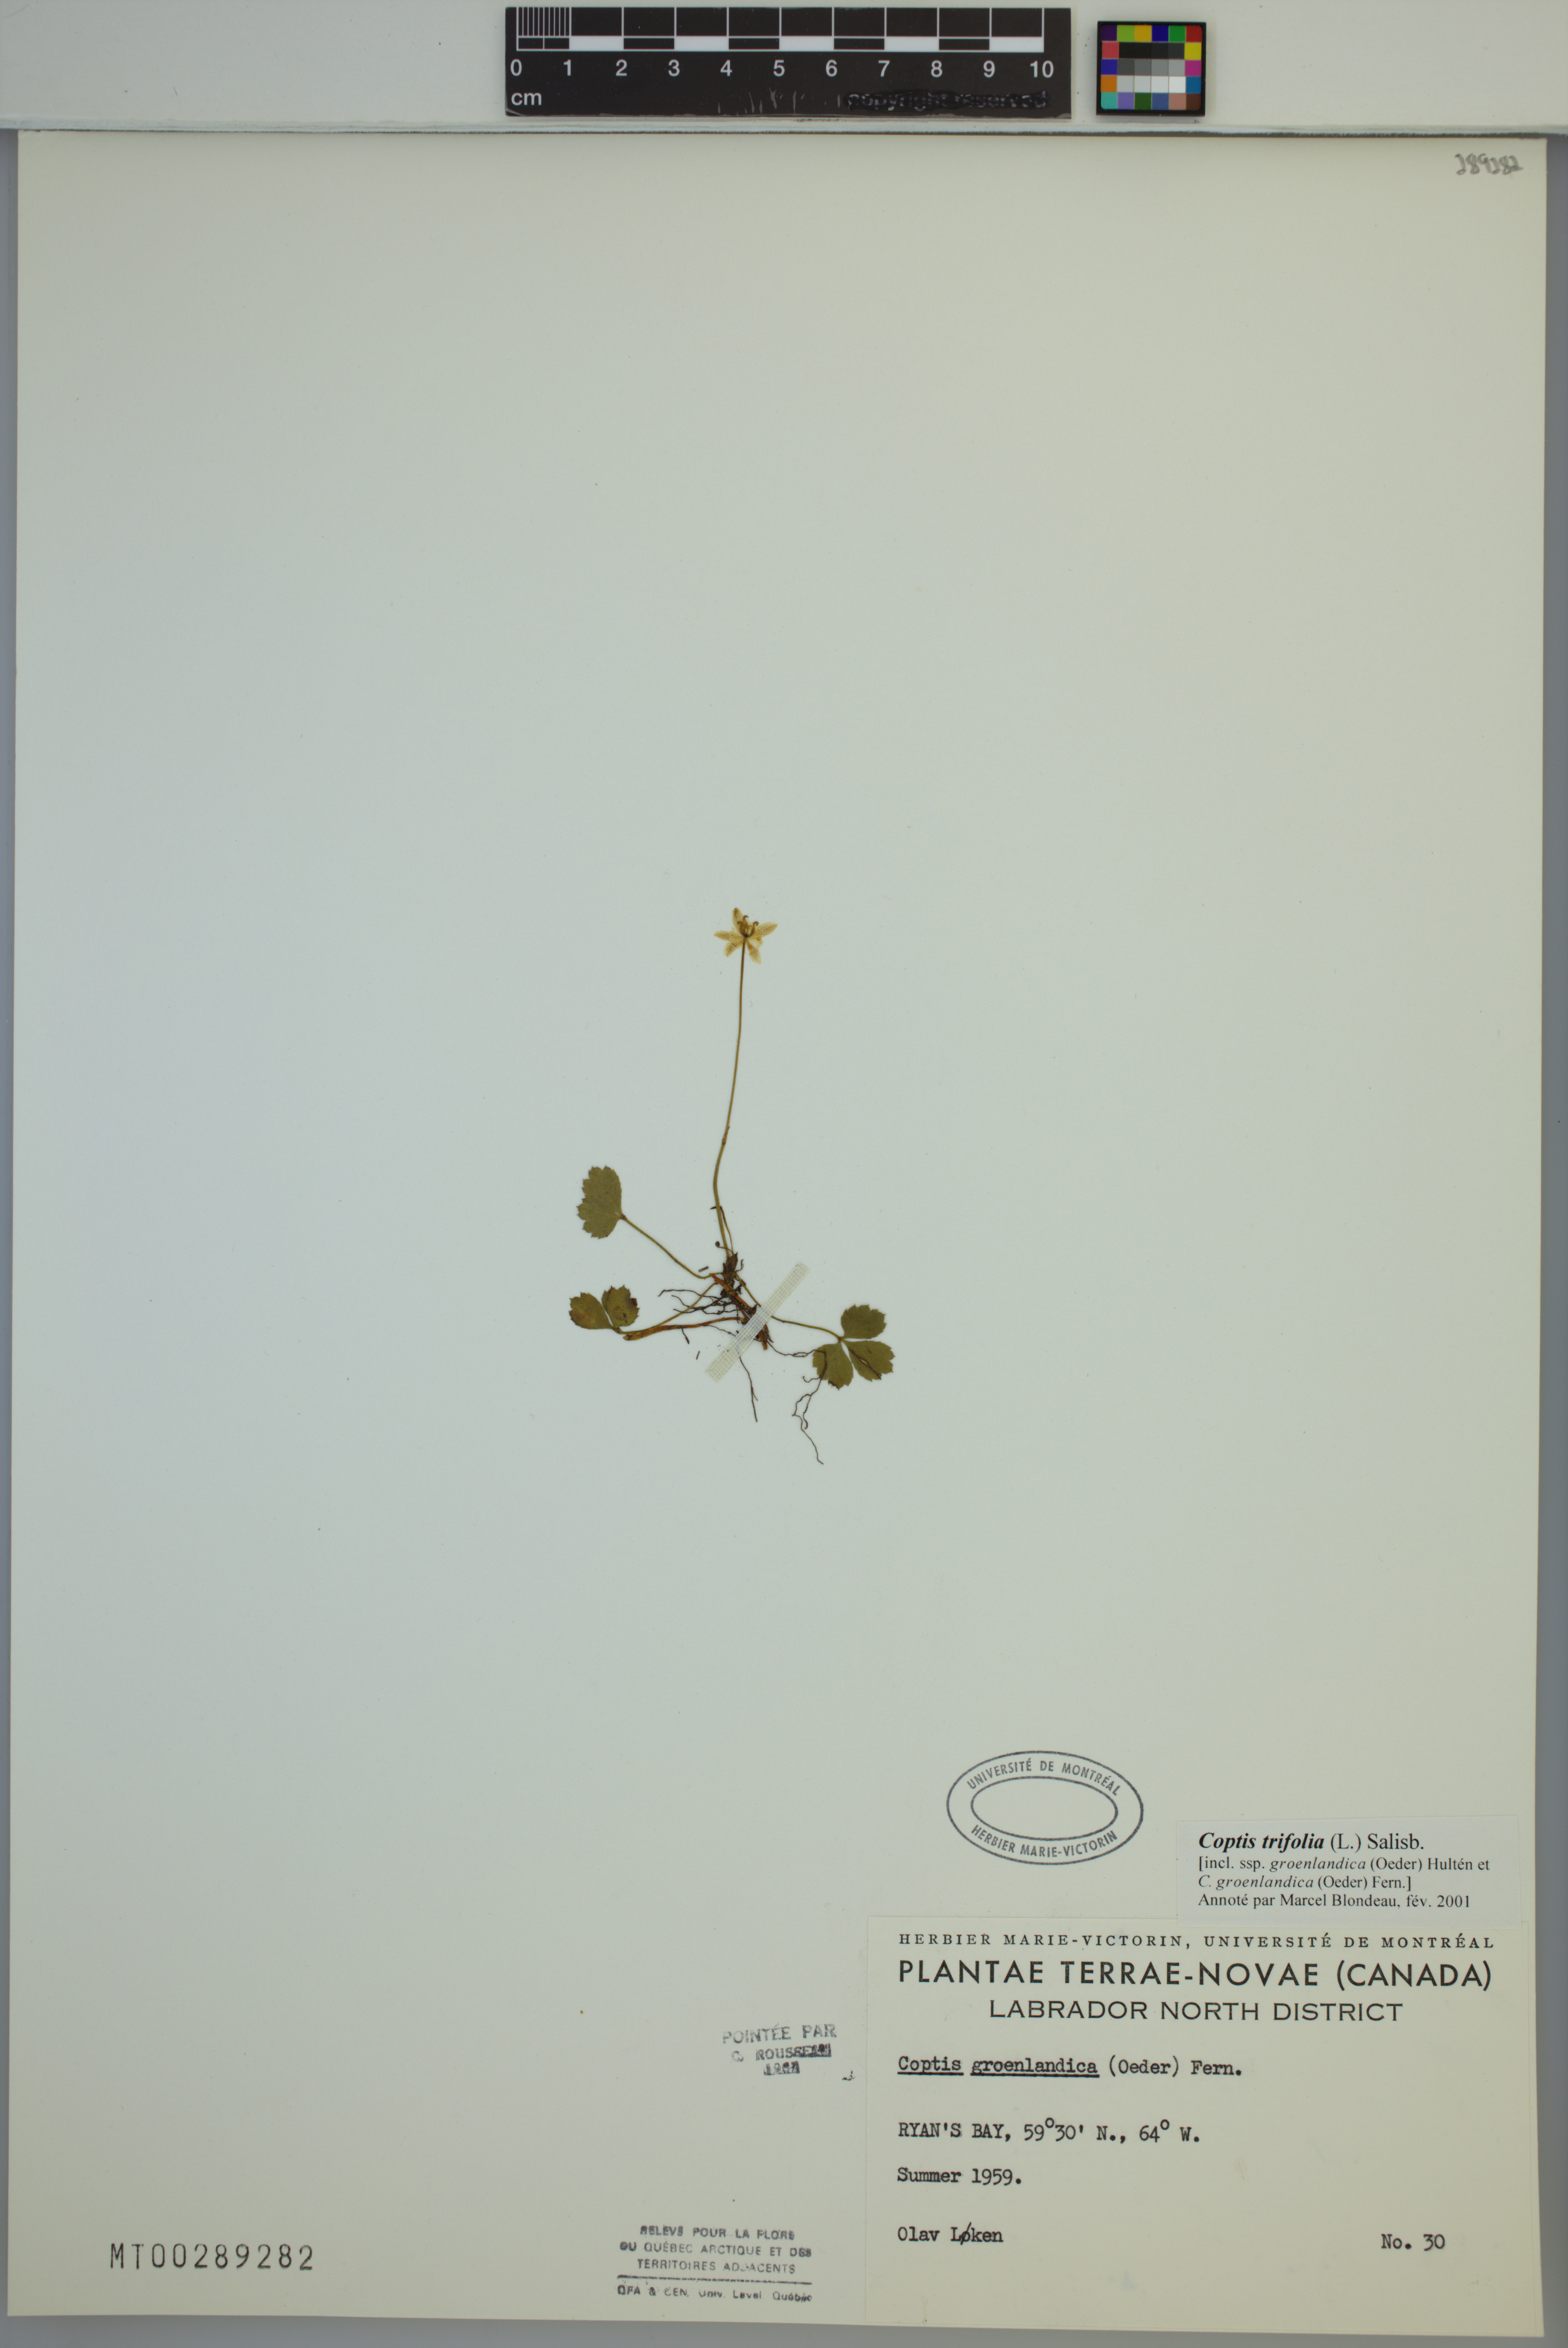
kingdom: Plantae
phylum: Tracheophyta
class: Magnoliopsida
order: Ranunculales
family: Ranunculaceae
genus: Coptis
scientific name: Coptis trifolia
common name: Canker-root
